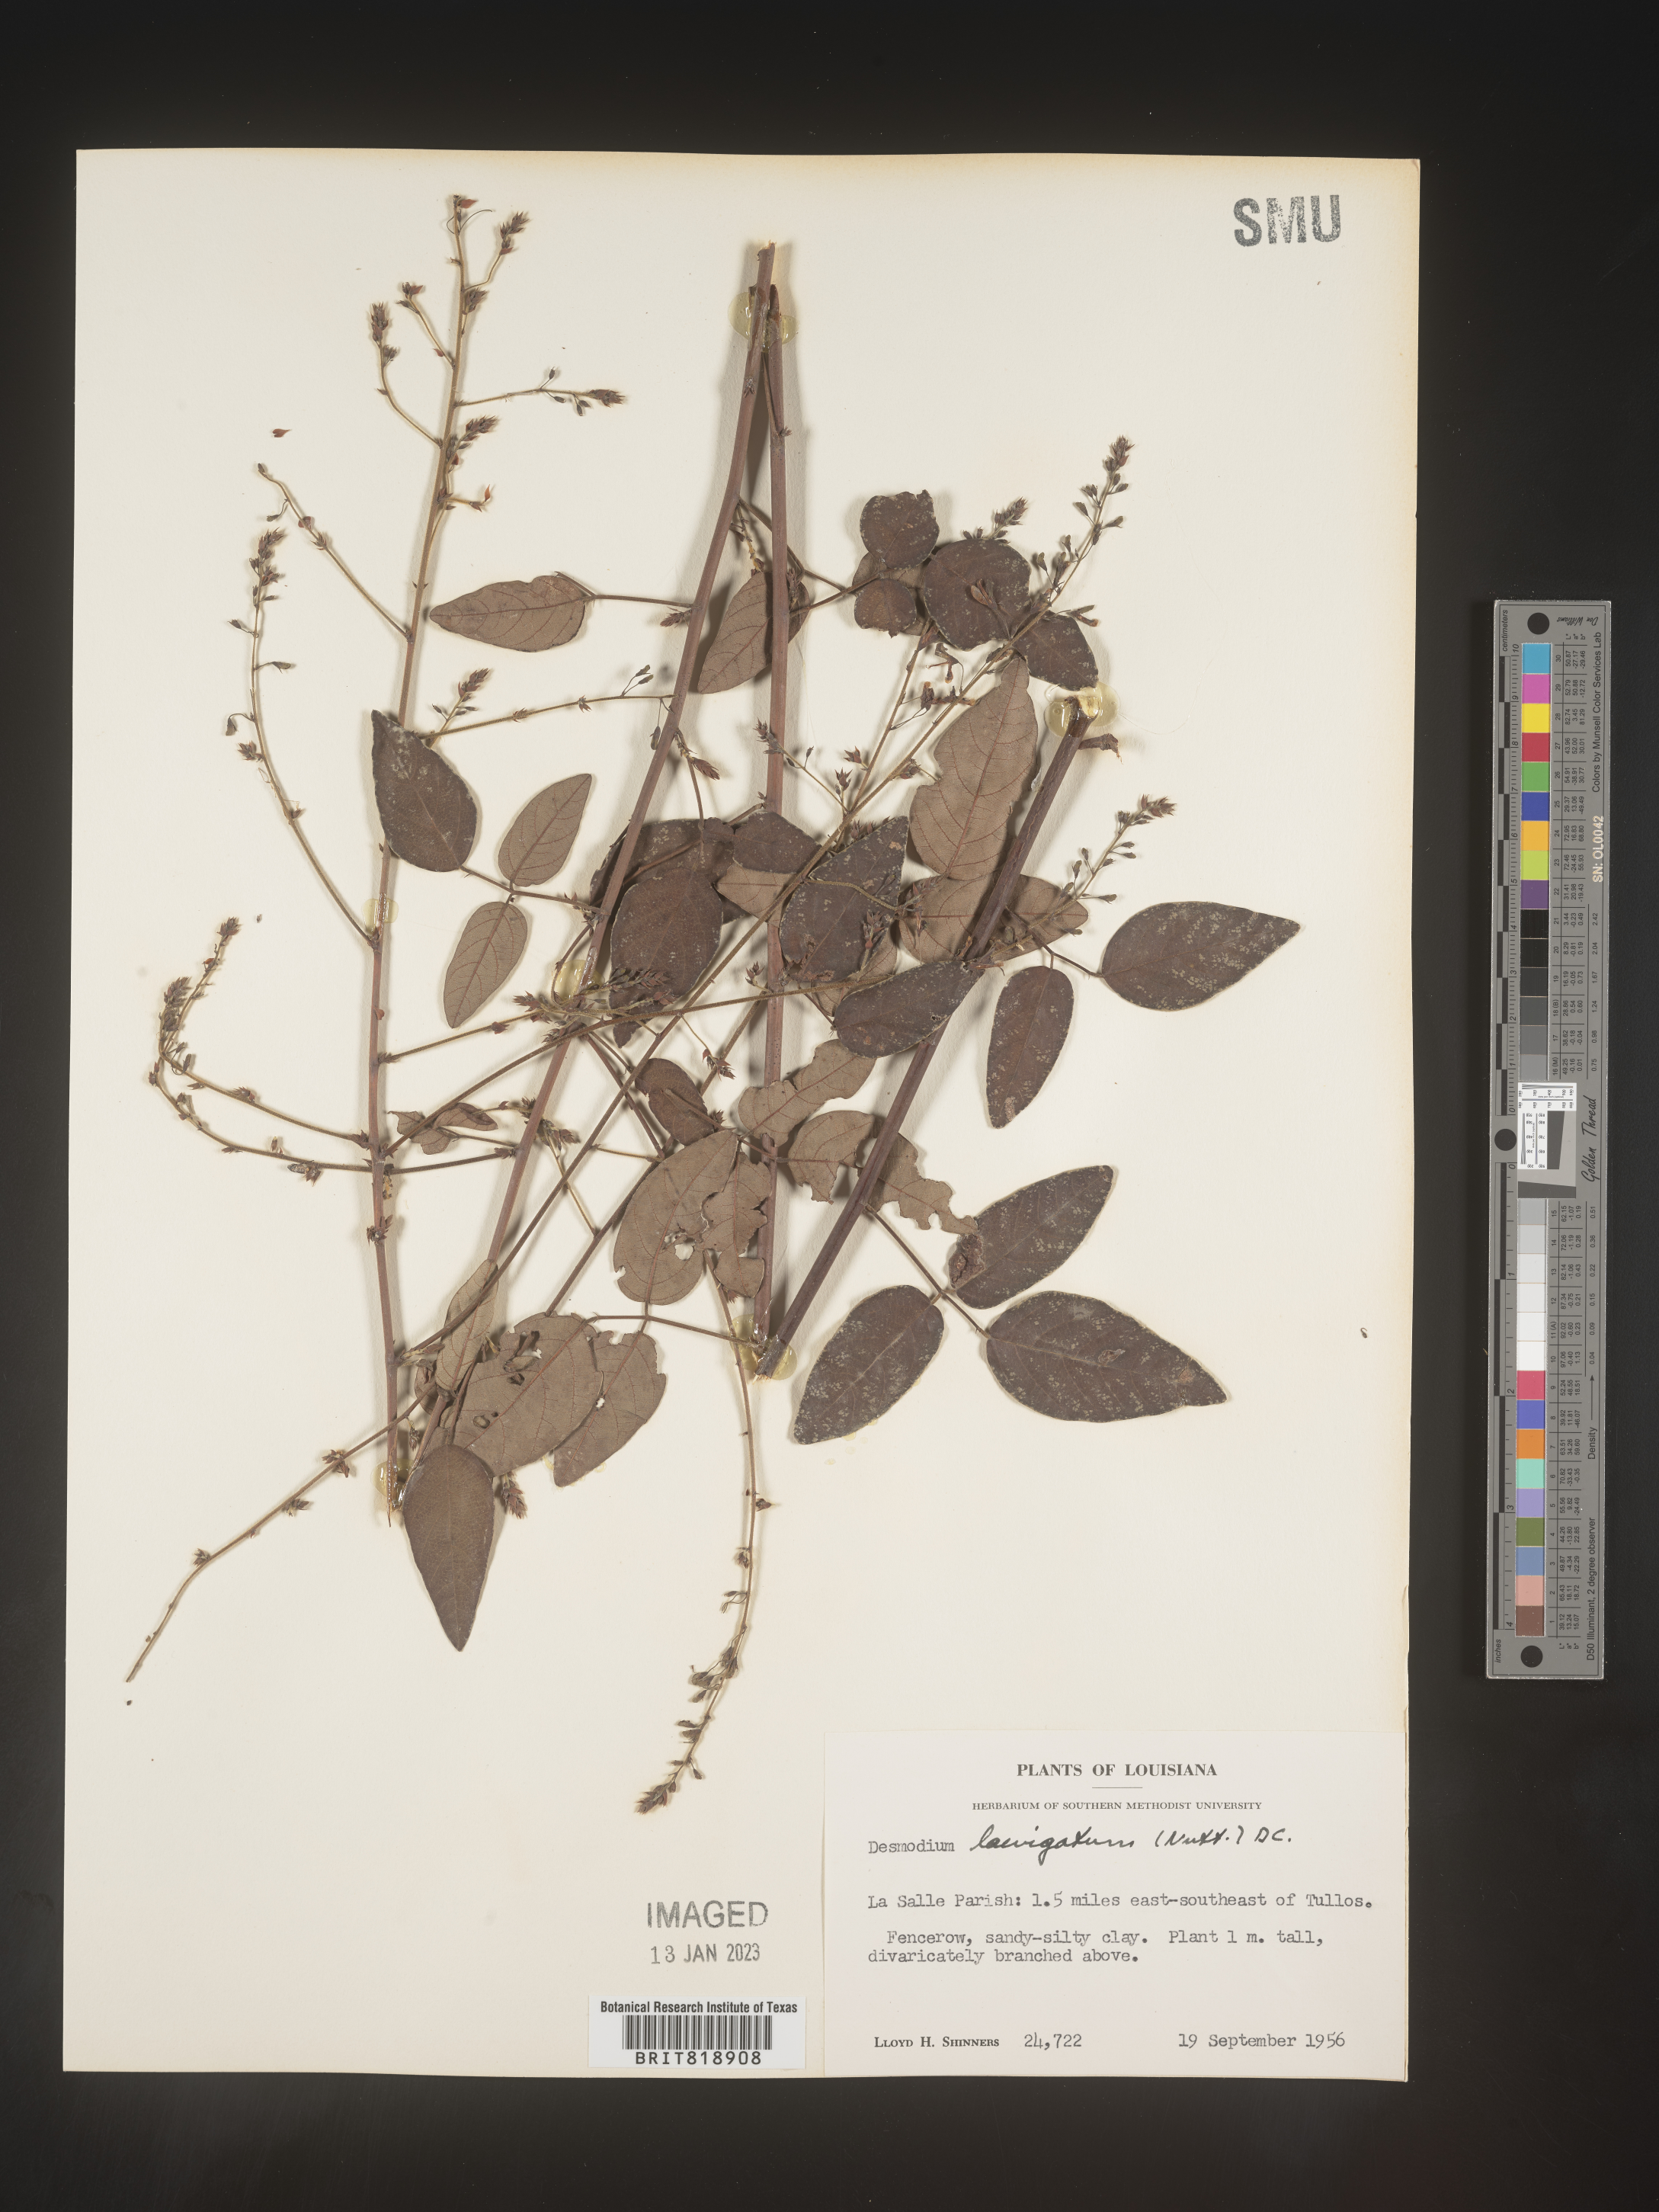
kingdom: Plantae
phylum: Tracheophyta
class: Magnoliopsida
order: Fabales
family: Fabaceae
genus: Desmodium
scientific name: Desmodium laevigatum
